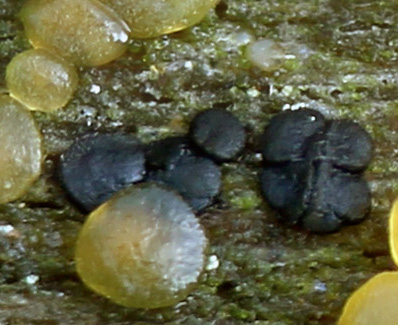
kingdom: Fungi
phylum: Ascomycota
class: Leotiomycetes
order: Leotiales
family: Tympanidaceae
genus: Vexillomyces
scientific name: Vexillomyces atrovirens
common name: sortgrøn linseskive
